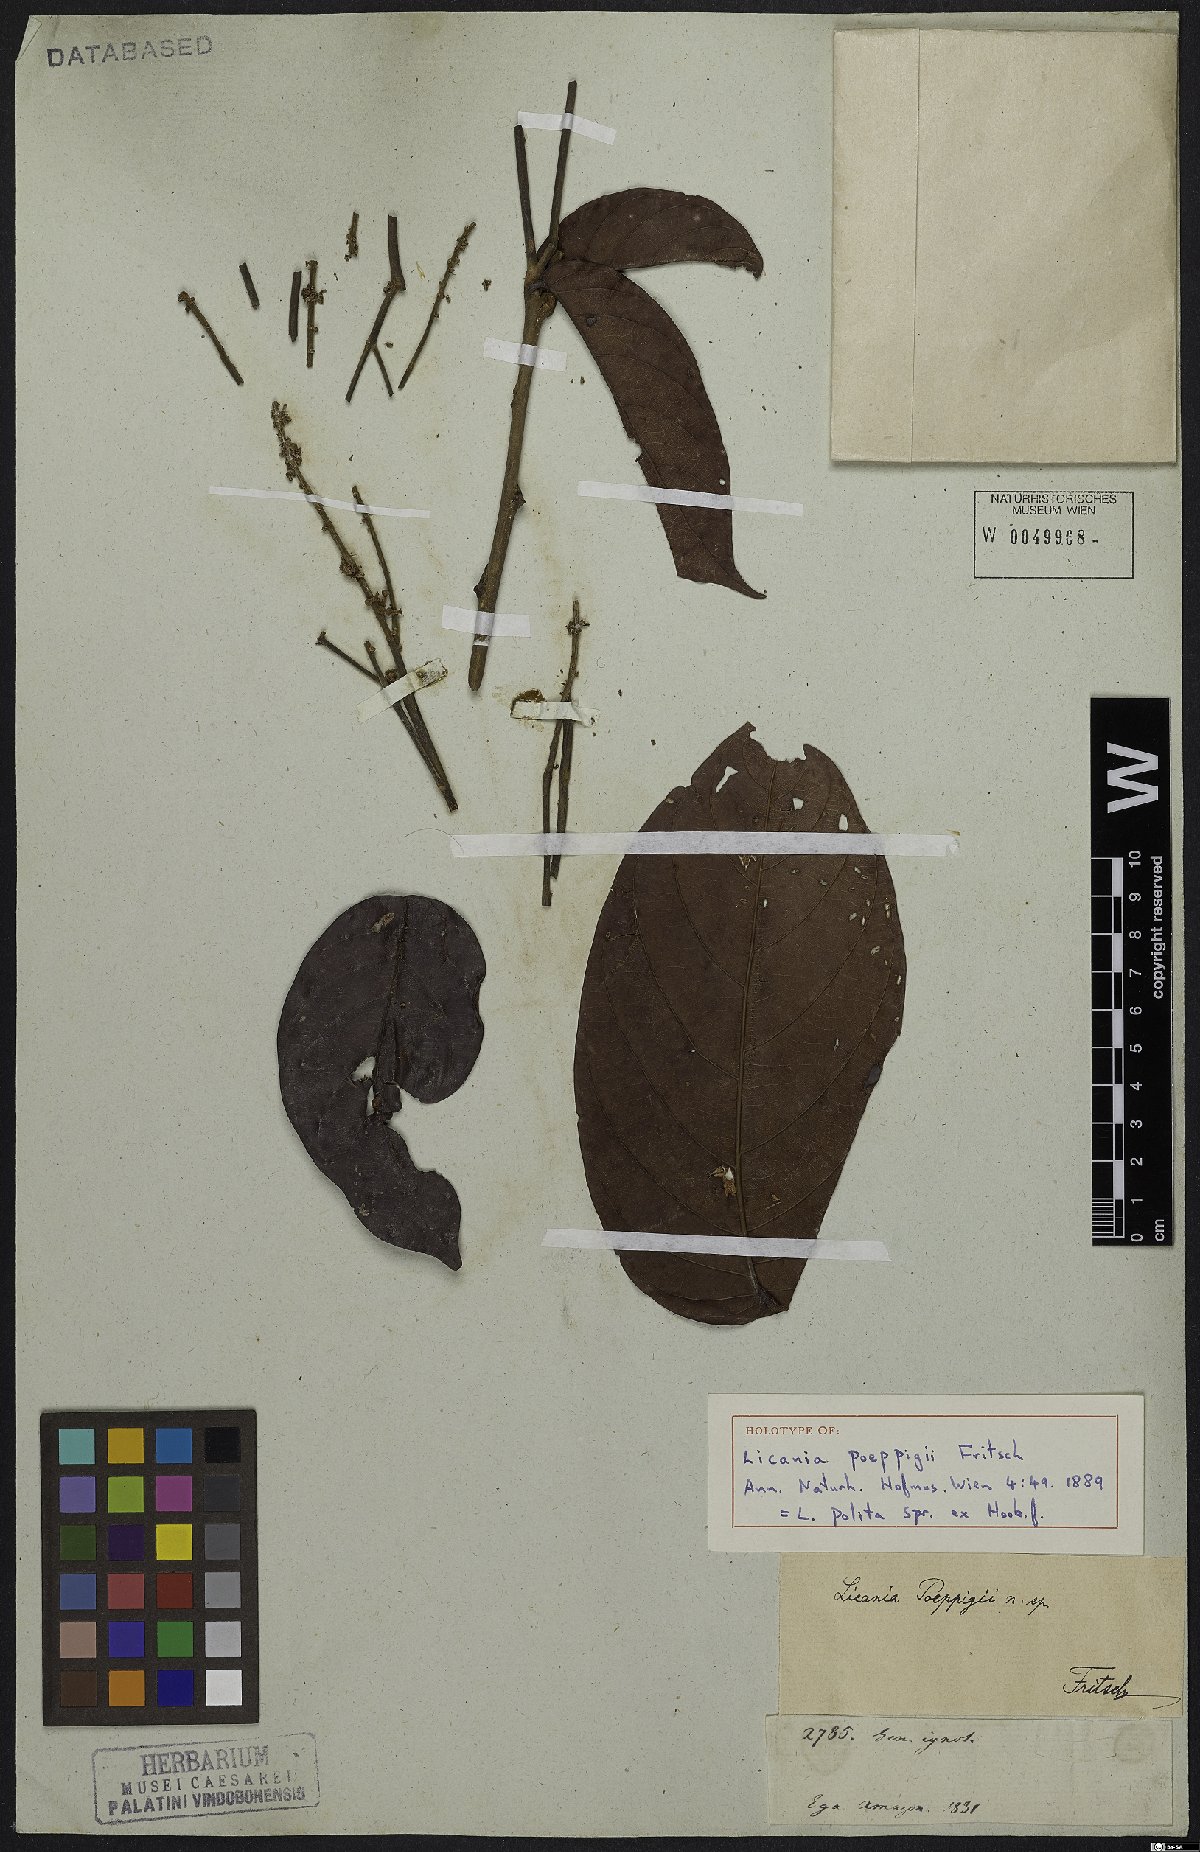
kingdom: Plantae
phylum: Tracheophyta
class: Magnoliopsida
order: Malpighiales
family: Chrysobalanaceae
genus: Licania
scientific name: Licania polita
